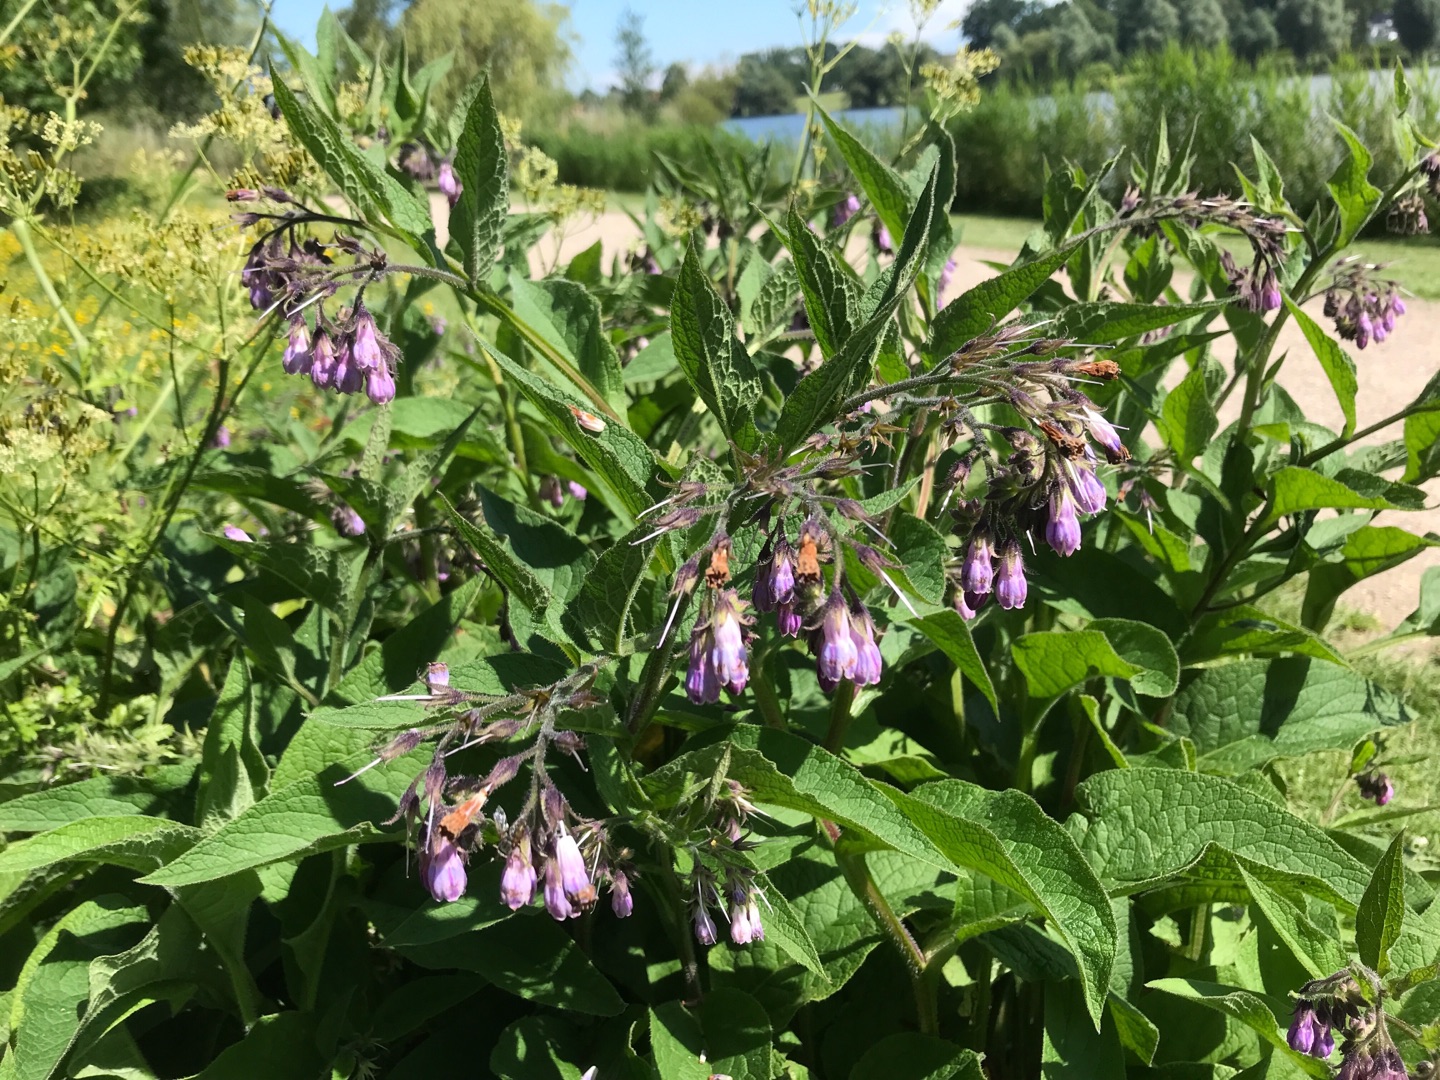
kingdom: Plantae
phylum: Tracheophyta
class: Magnoliopsida
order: Boraginales
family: Boraginaceae
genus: Symphytum
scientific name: Symphytum uplandicum
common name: Foder-kulsukker
